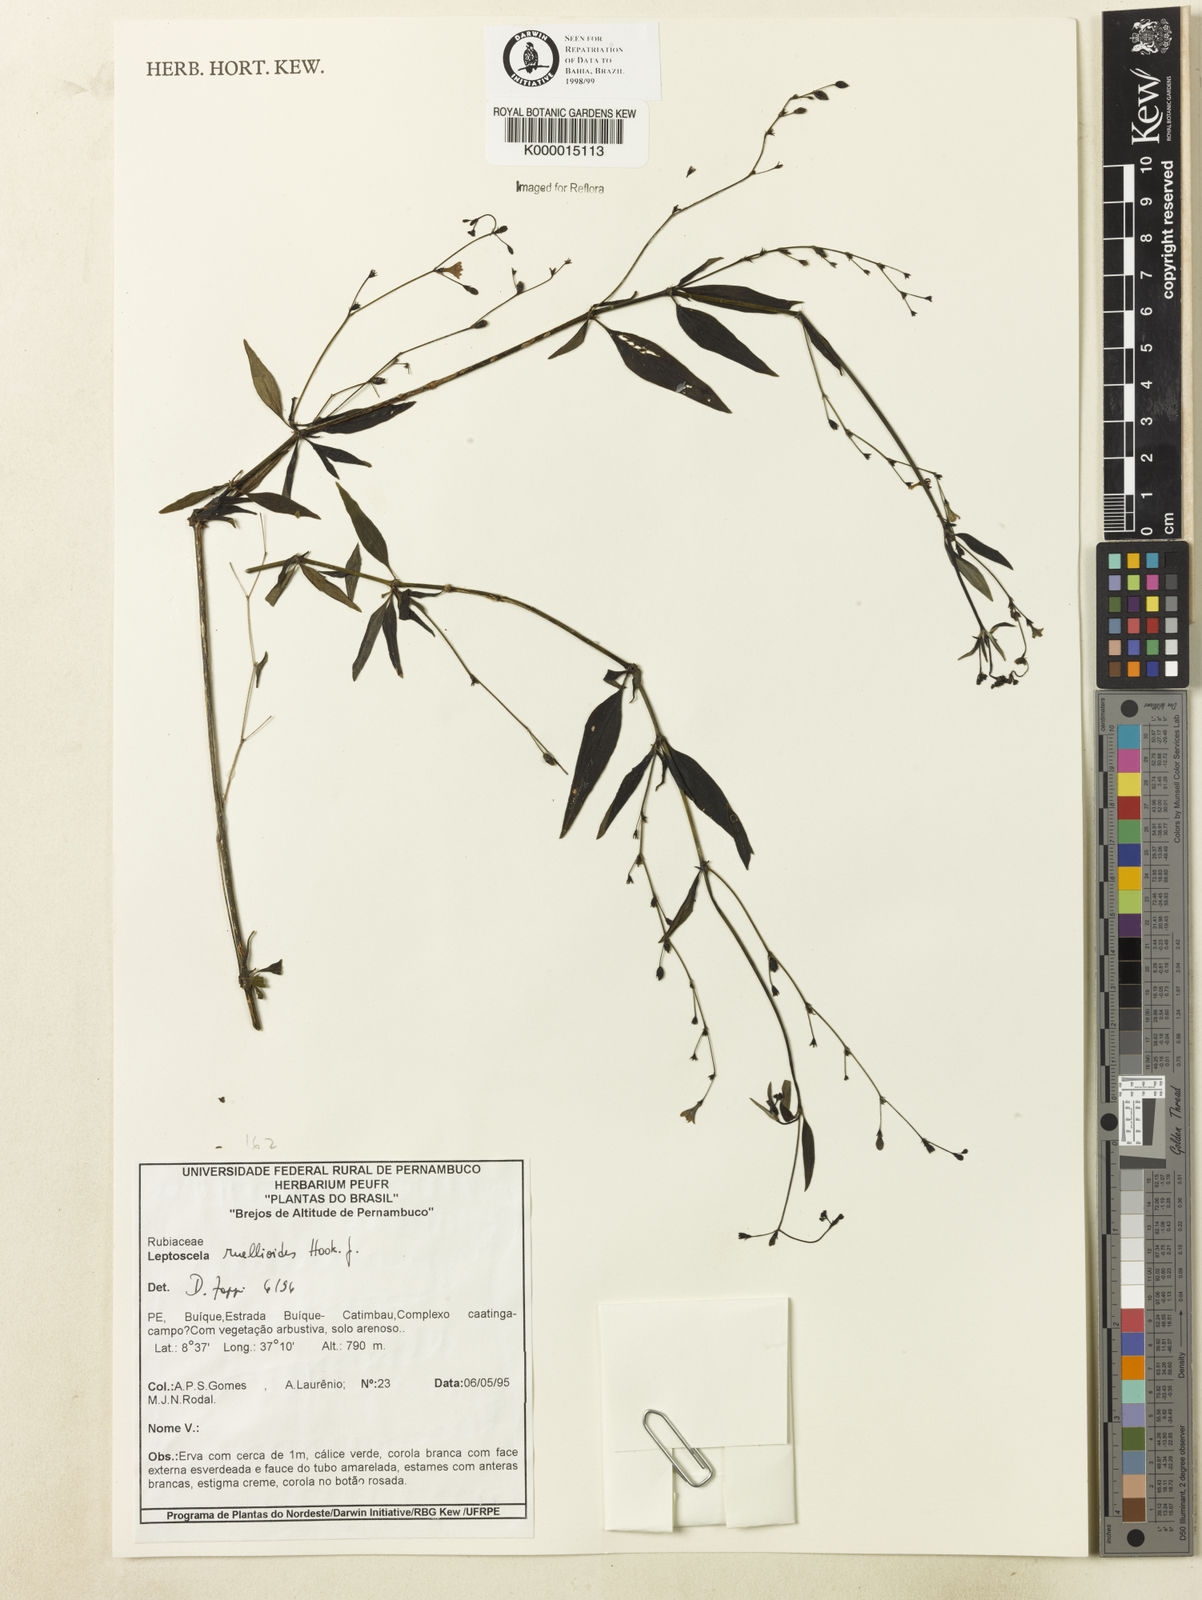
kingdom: Plantae
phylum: Tracheophyta
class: Magnoliopsida
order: Gentianales
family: Rubiaceae
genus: Leptoscela
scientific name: Leptoscela
